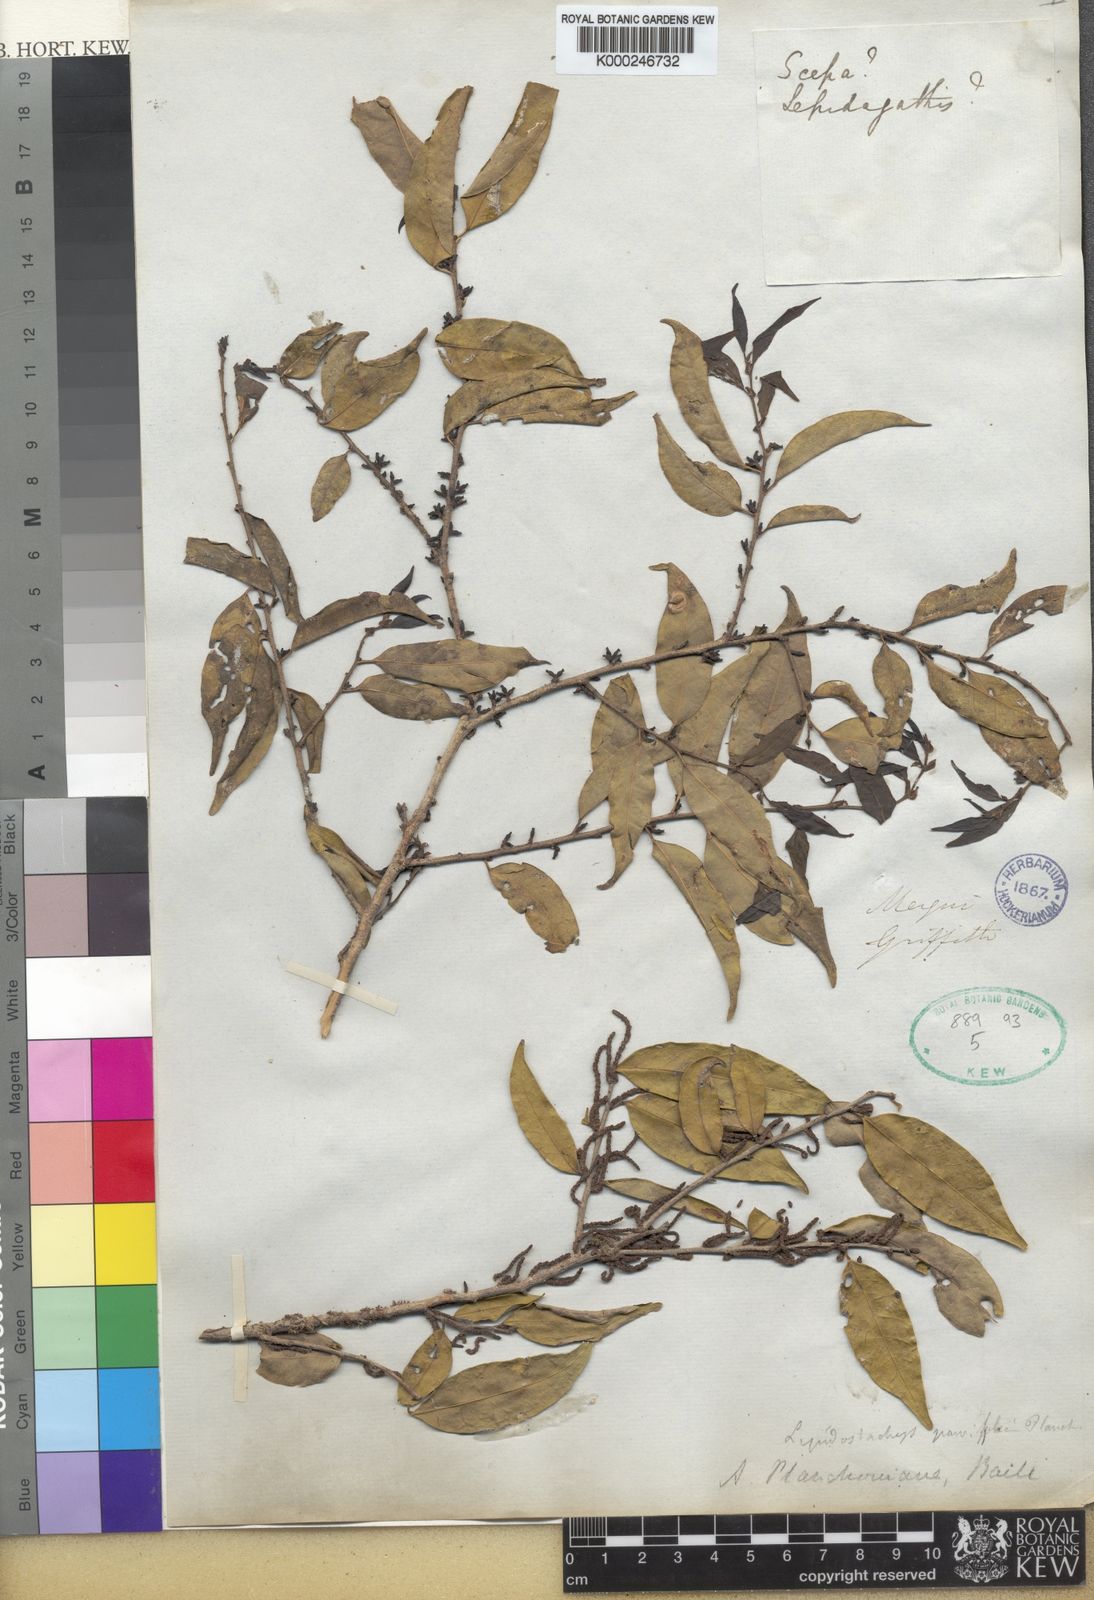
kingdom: Plantae
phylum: Tracheophyta
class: Magnoliopsida
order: Malpighiales
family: Phyllanthaceae
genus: Aporosa
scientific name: Aporosa
